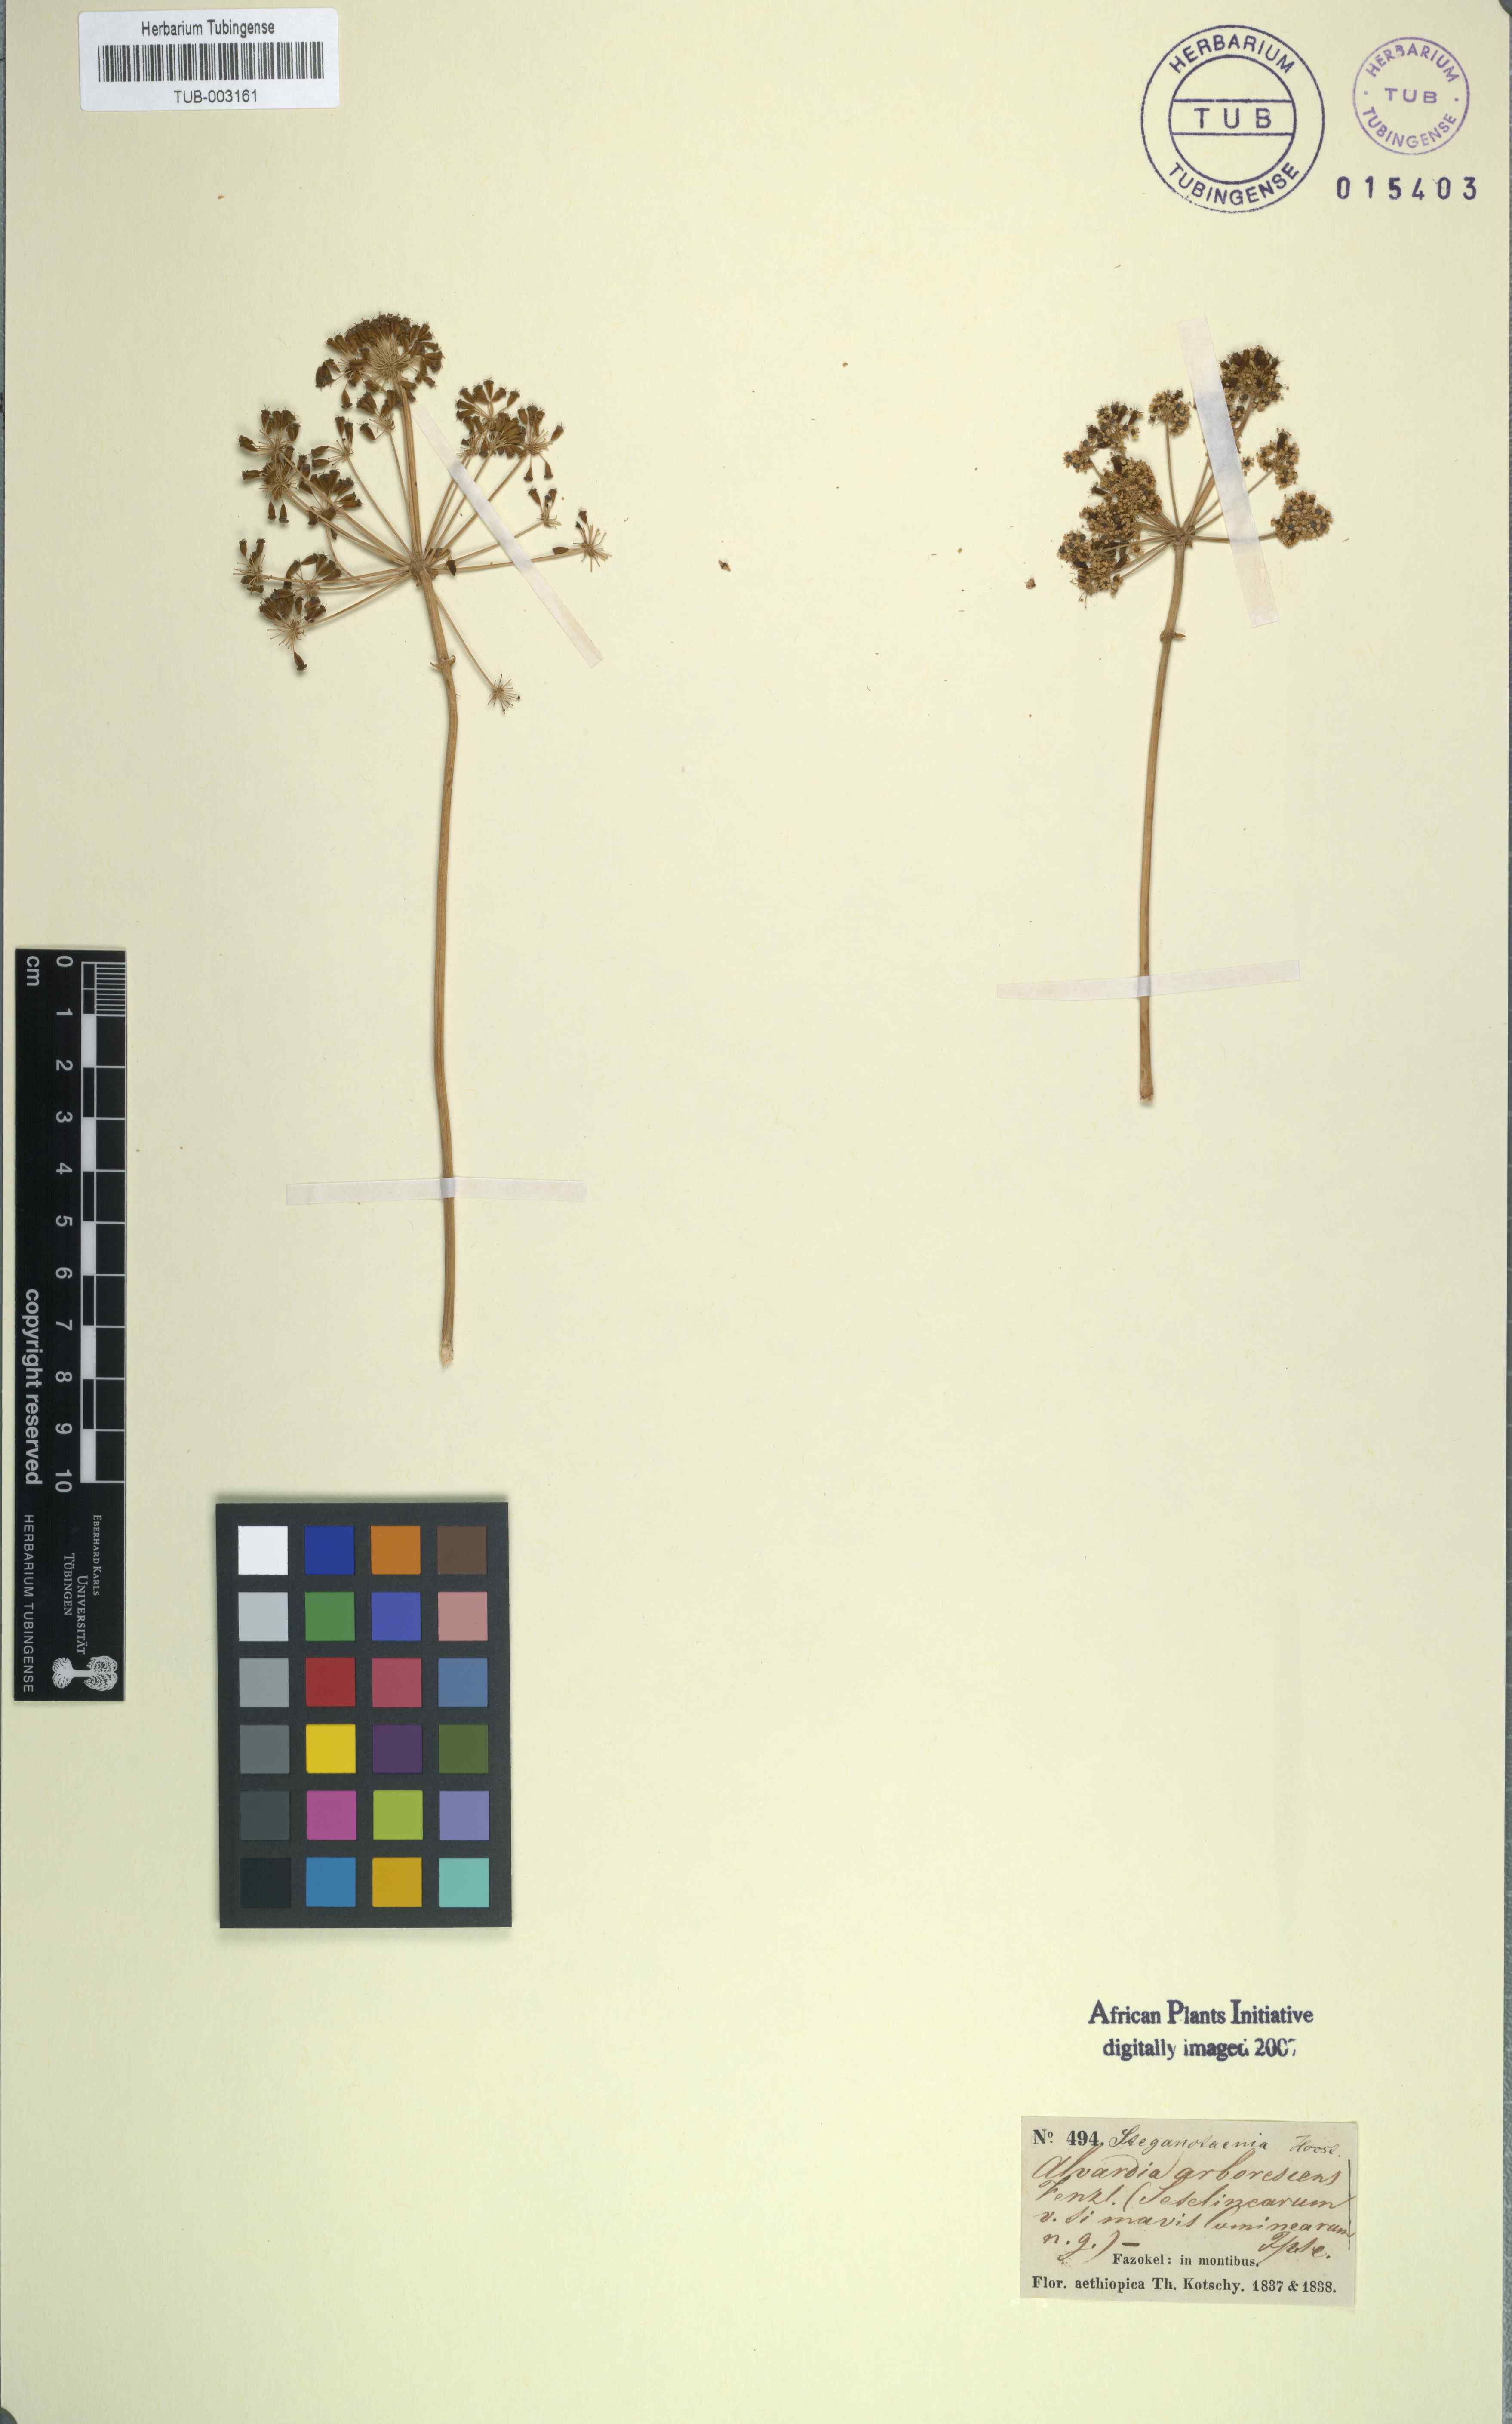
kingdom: Plantae
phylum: Tracheophyta
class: Magnoliopsida
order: Apiales
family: Apiaceae
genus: Steganotaenia
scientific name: Steganotaenia araliacea
